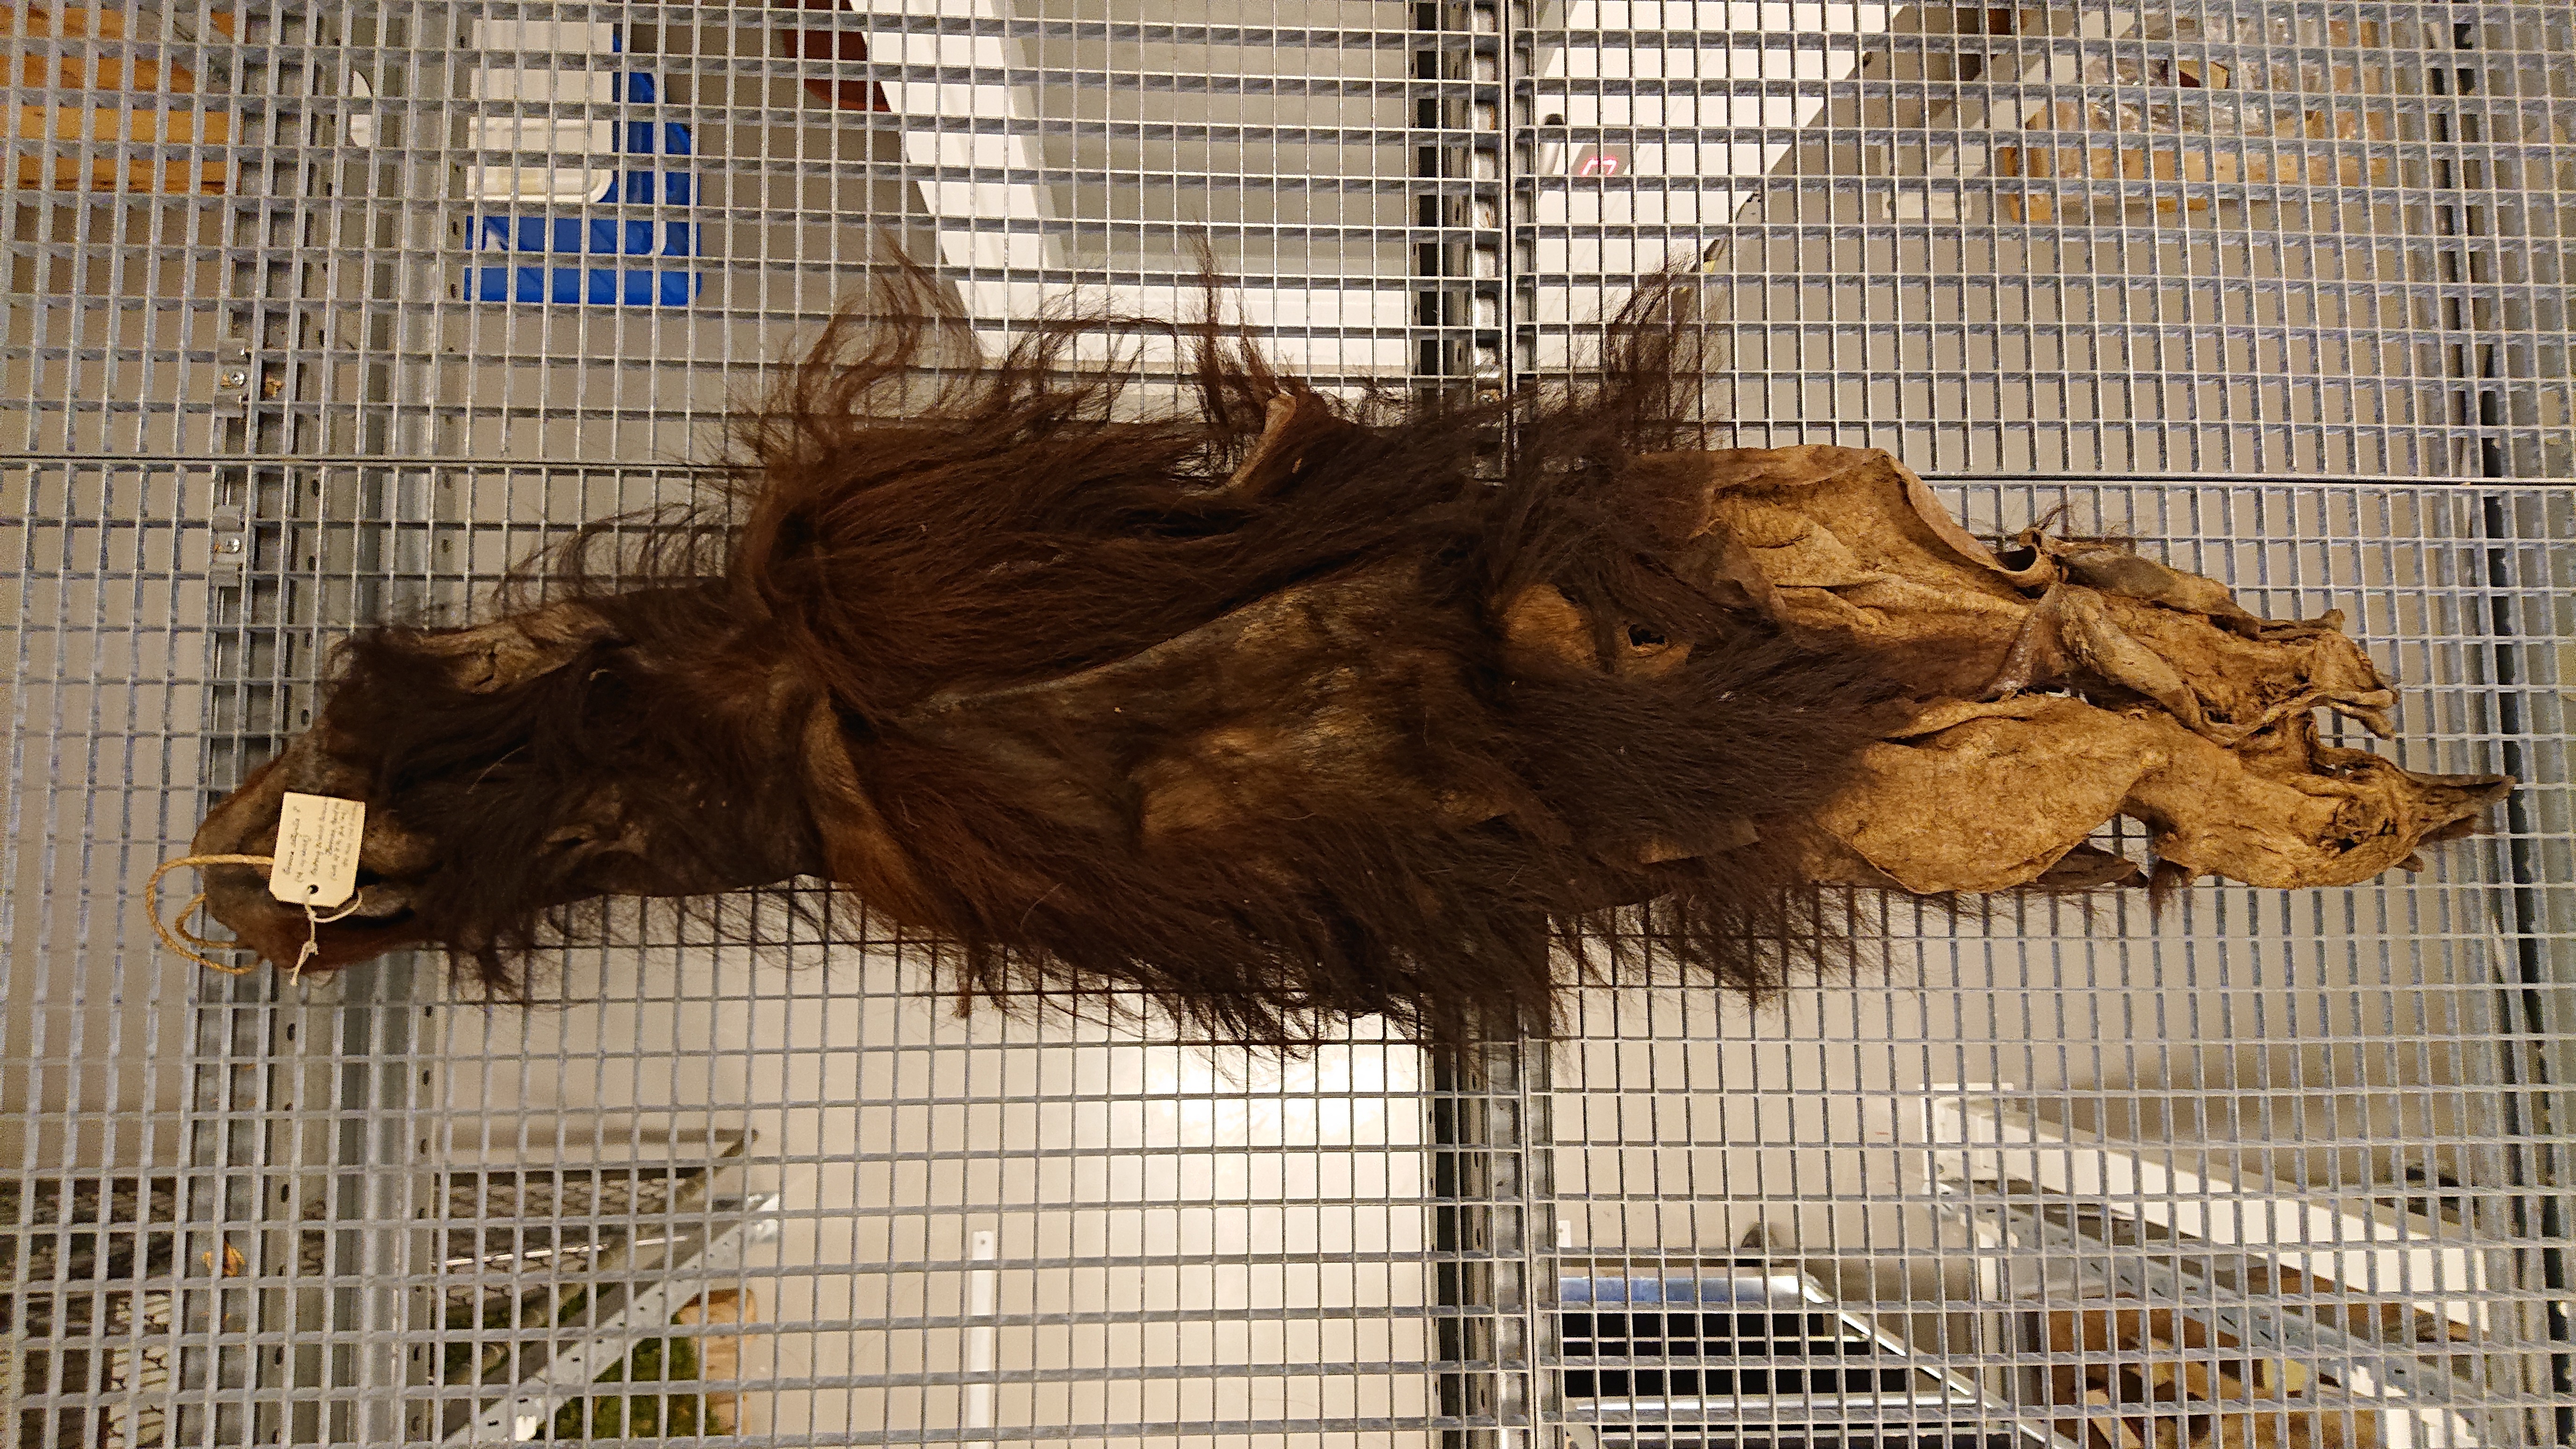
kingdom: Animalia
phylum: Chordata
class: Mammalia
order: Primates
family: Hominidae
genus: Pongo
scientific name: Pongo pygmaeus
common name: Bornean orangutan
